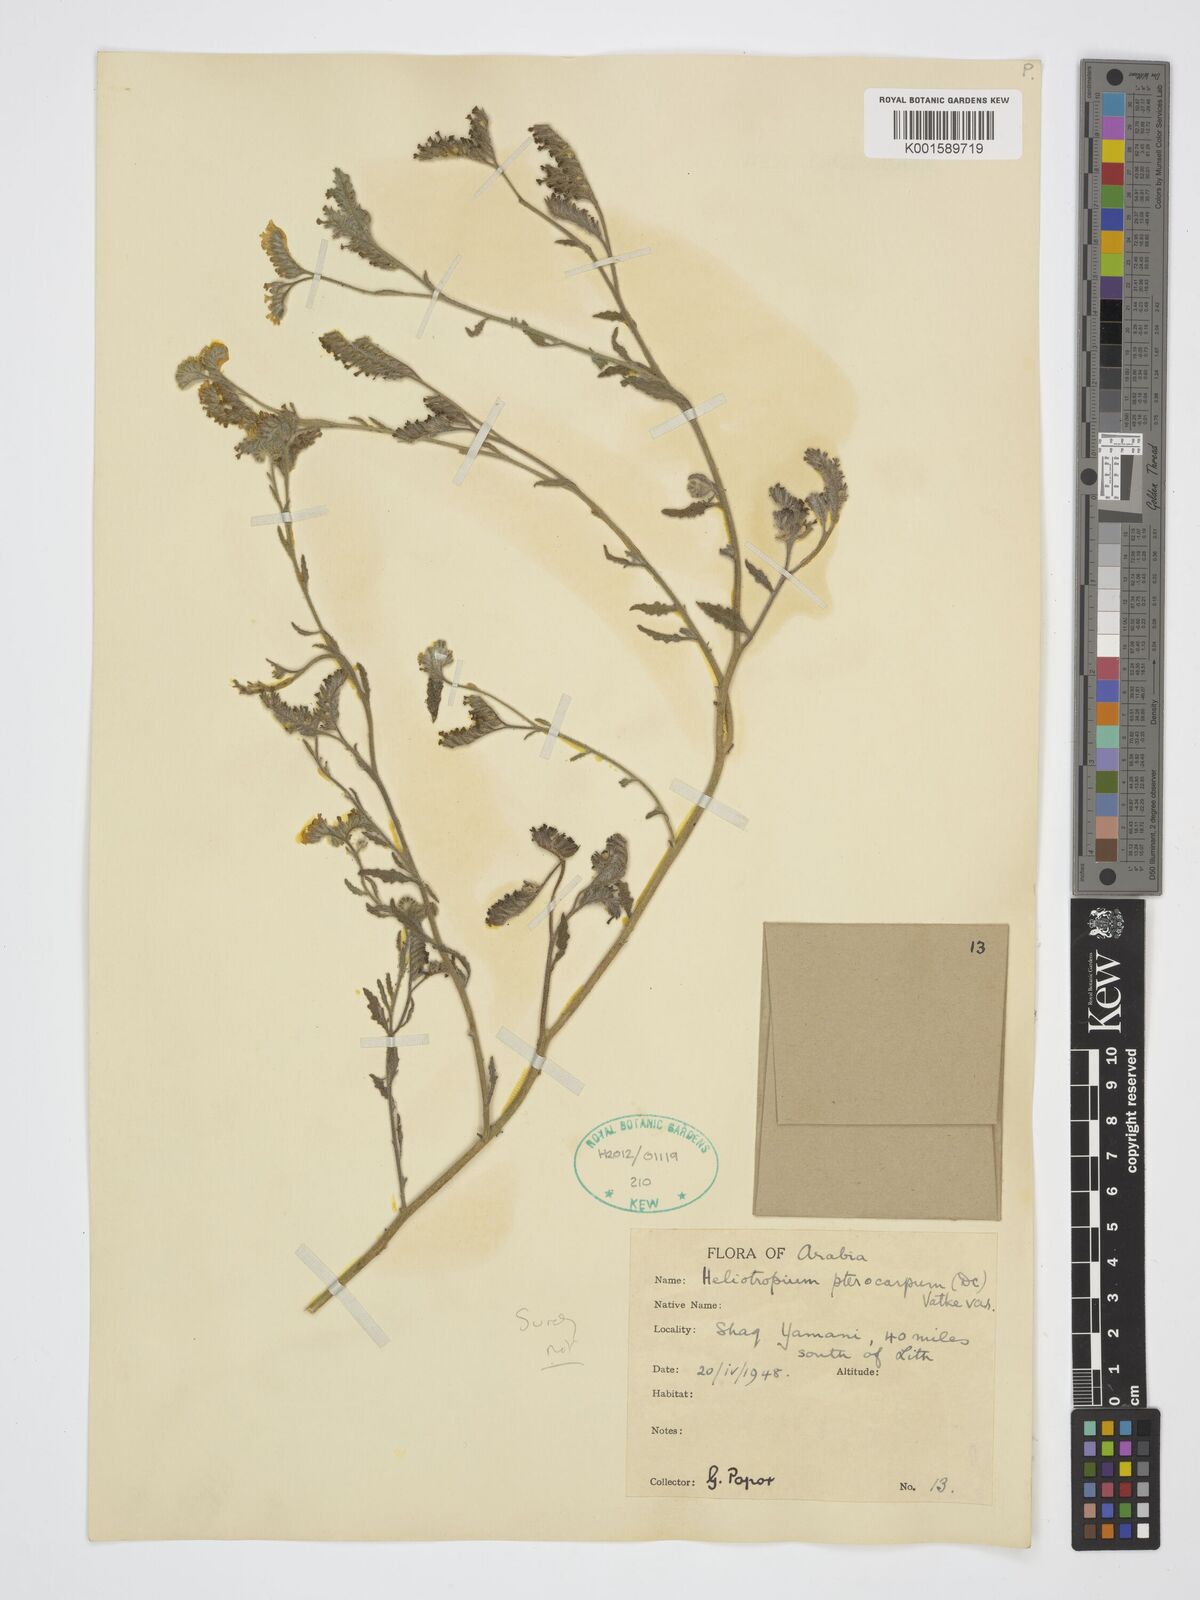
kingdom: Plantae
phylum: Tracheophyta
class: Magnoliopsida
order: Boraginales
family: Heliotropiaceae
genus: Heliotropium
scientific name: Heliotropium pterocarpum
